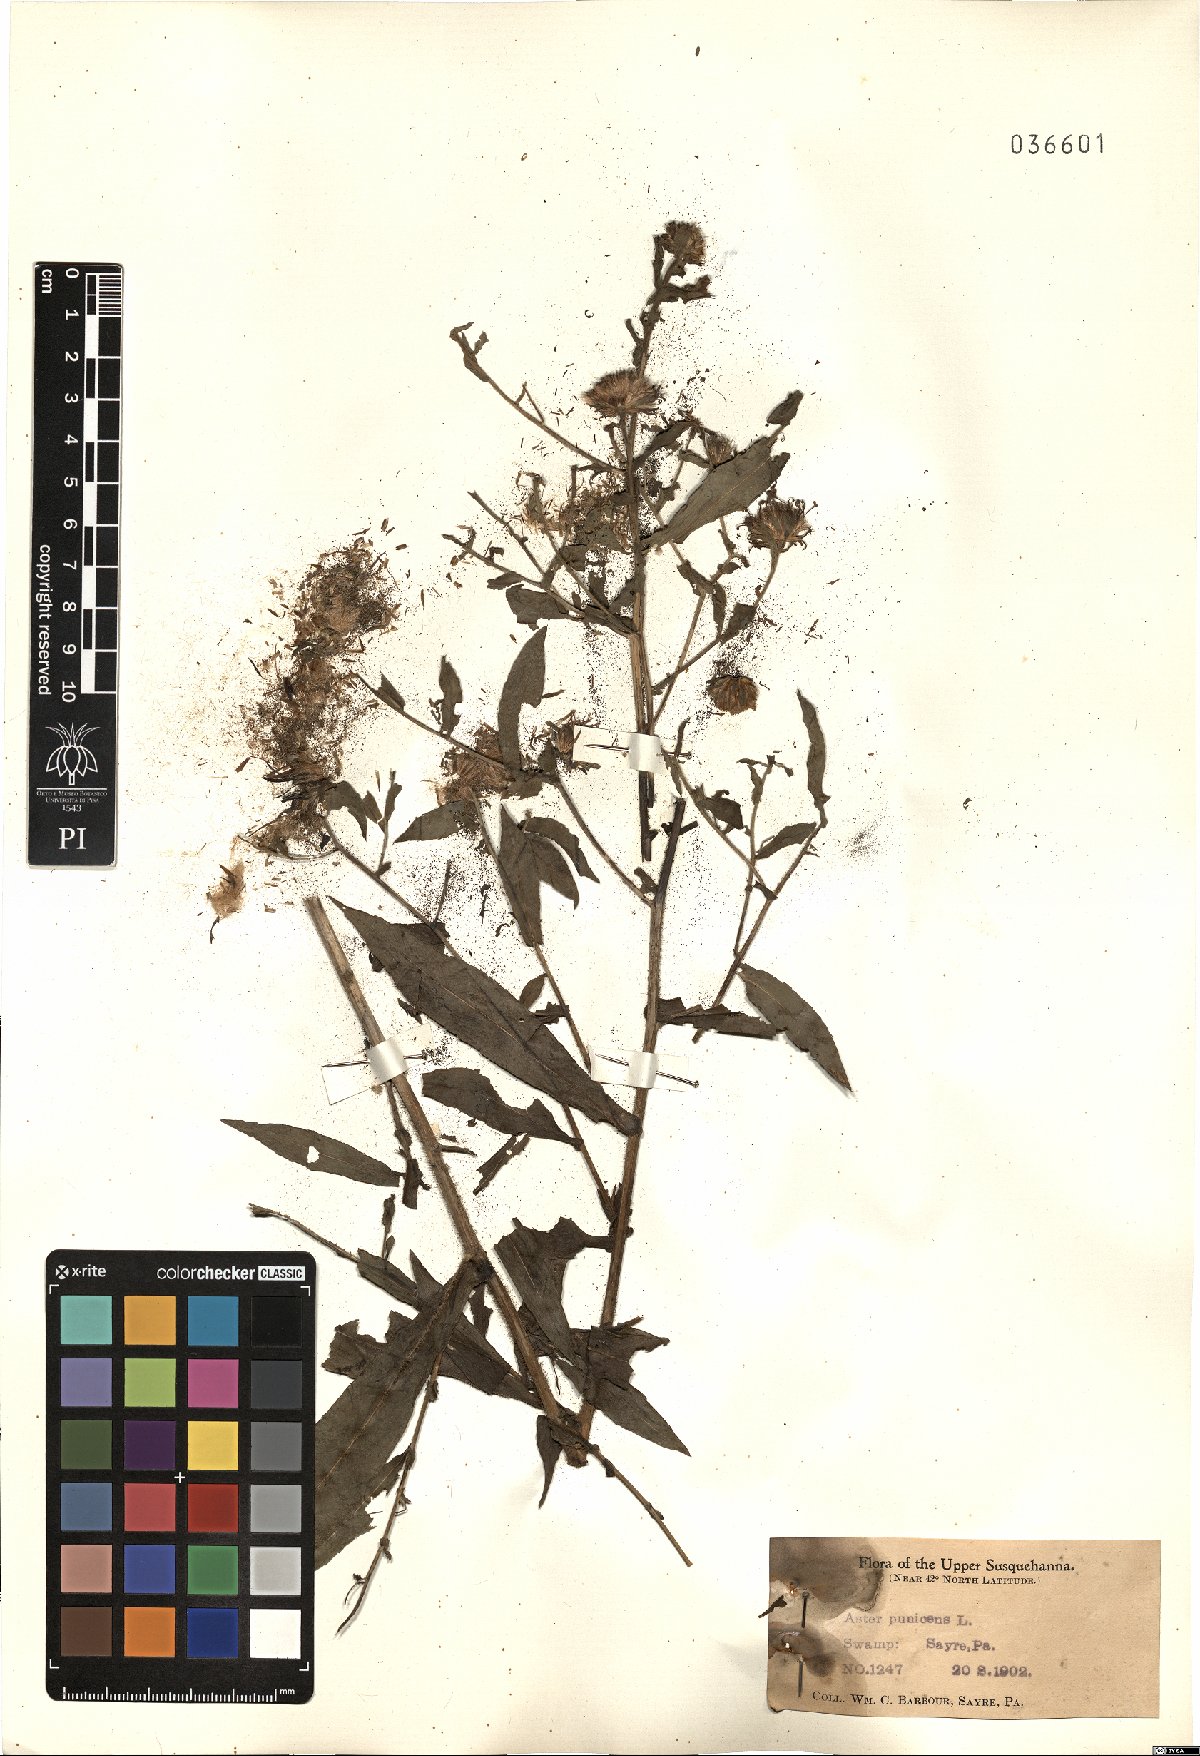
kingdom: Plantae
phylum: Tracheophyta
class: Magnoliopsida
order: Asterales
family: Asteraceae
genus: Symphyotrichum
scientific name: Symphyotrichum puniceum
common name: Bog aster
